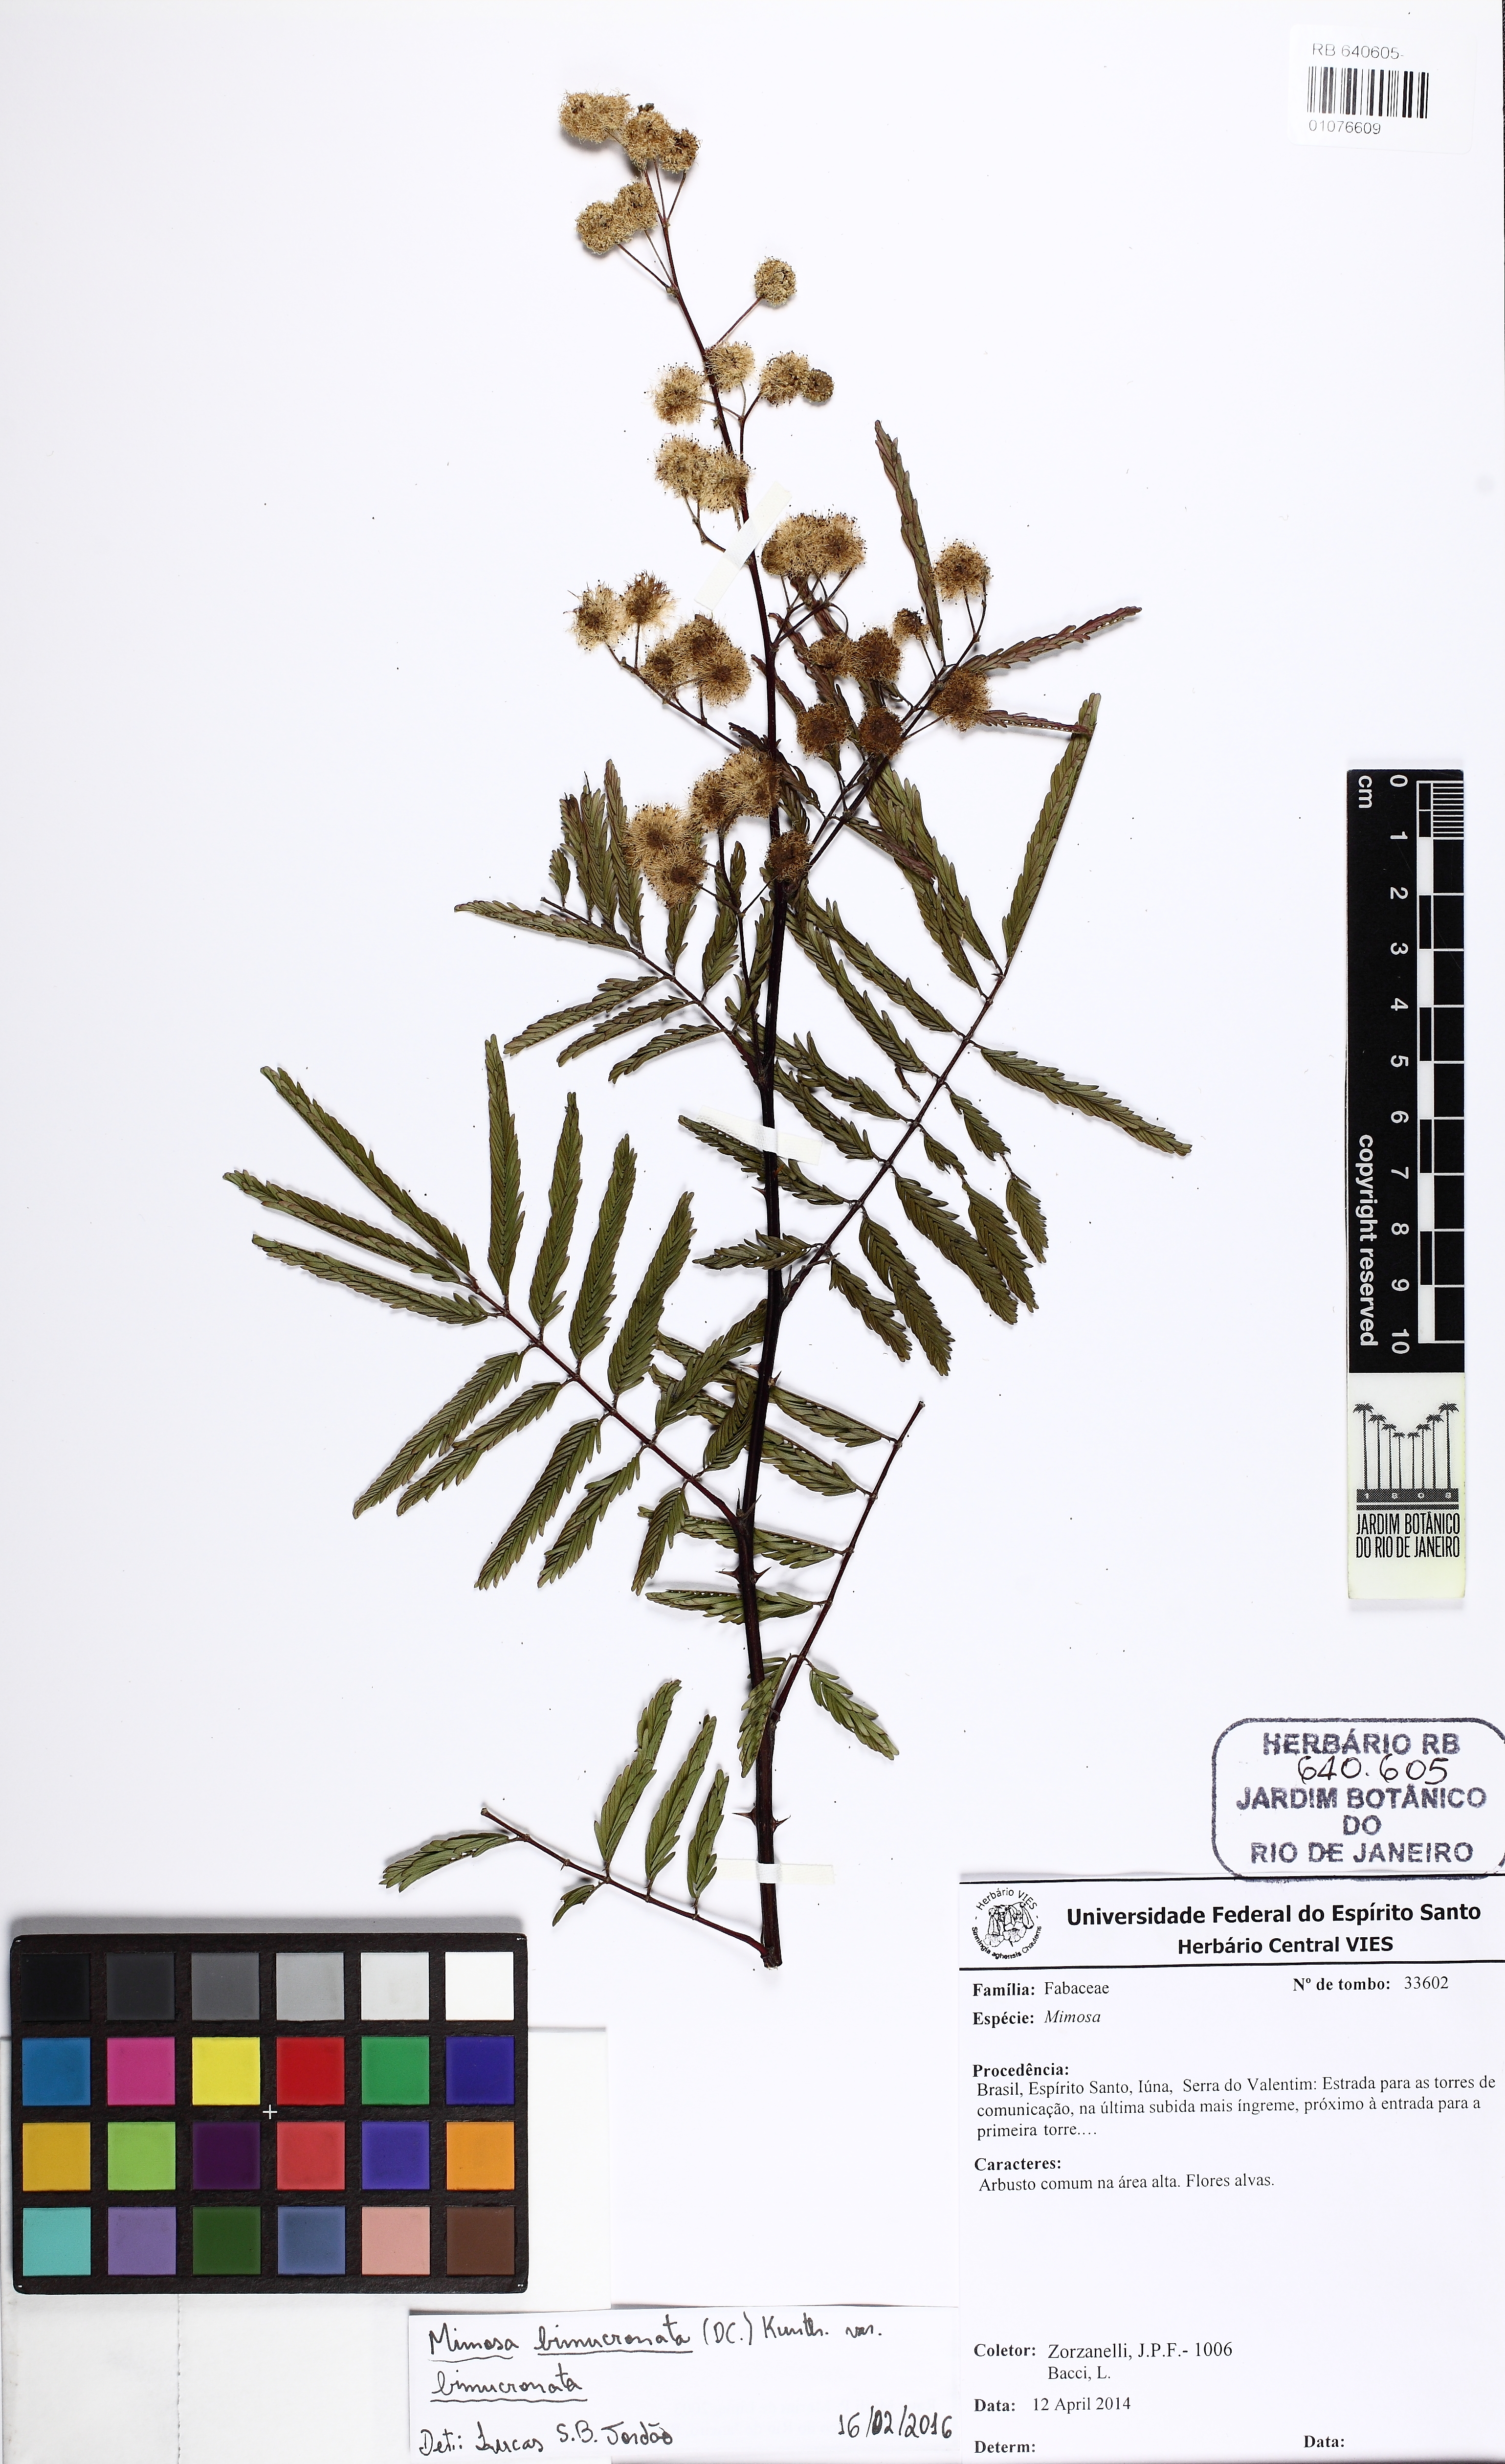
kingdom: Plantae
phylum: Tracheophyta
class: Magnoliopsida
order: Fabales
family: Fabaceae
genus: Mimosa
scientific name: Mimosa bimucronata
